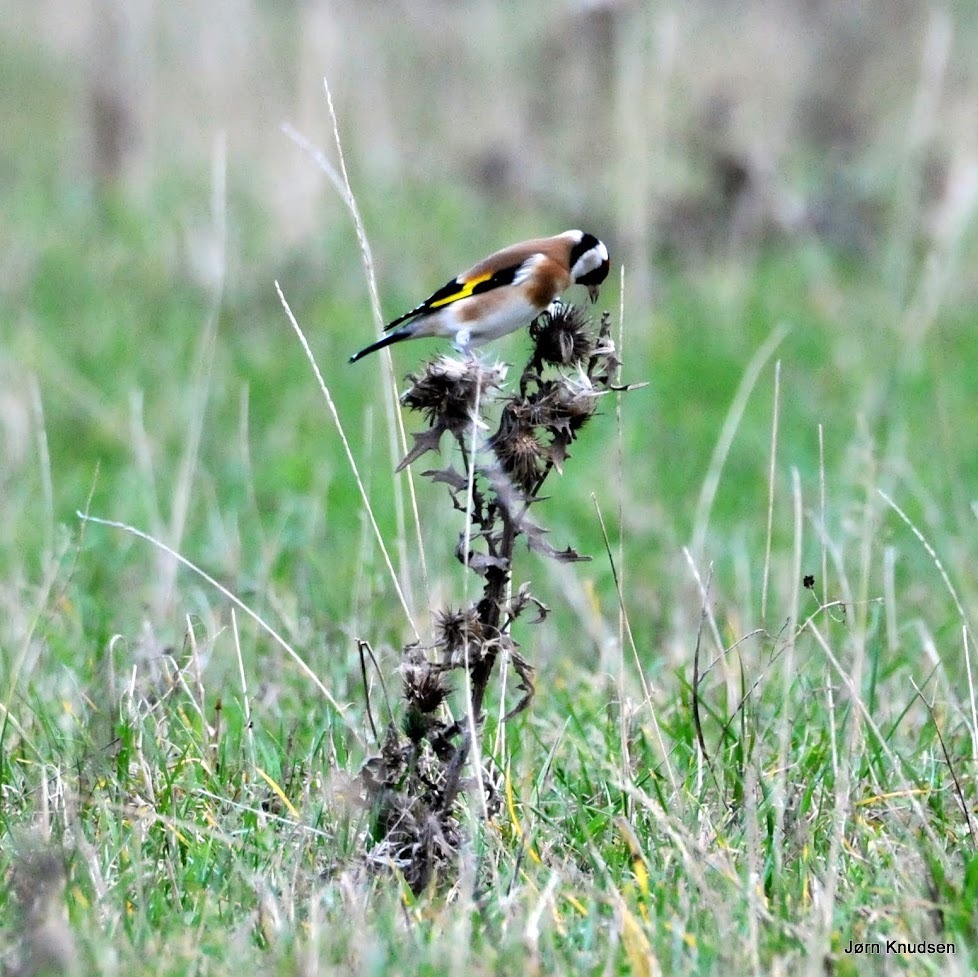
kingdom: Animalia
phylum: Chordata
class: Aves
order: Passeriformes
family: Fringillidae
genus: Carduelis
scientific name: Carduelis carduelis
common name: Stillits
